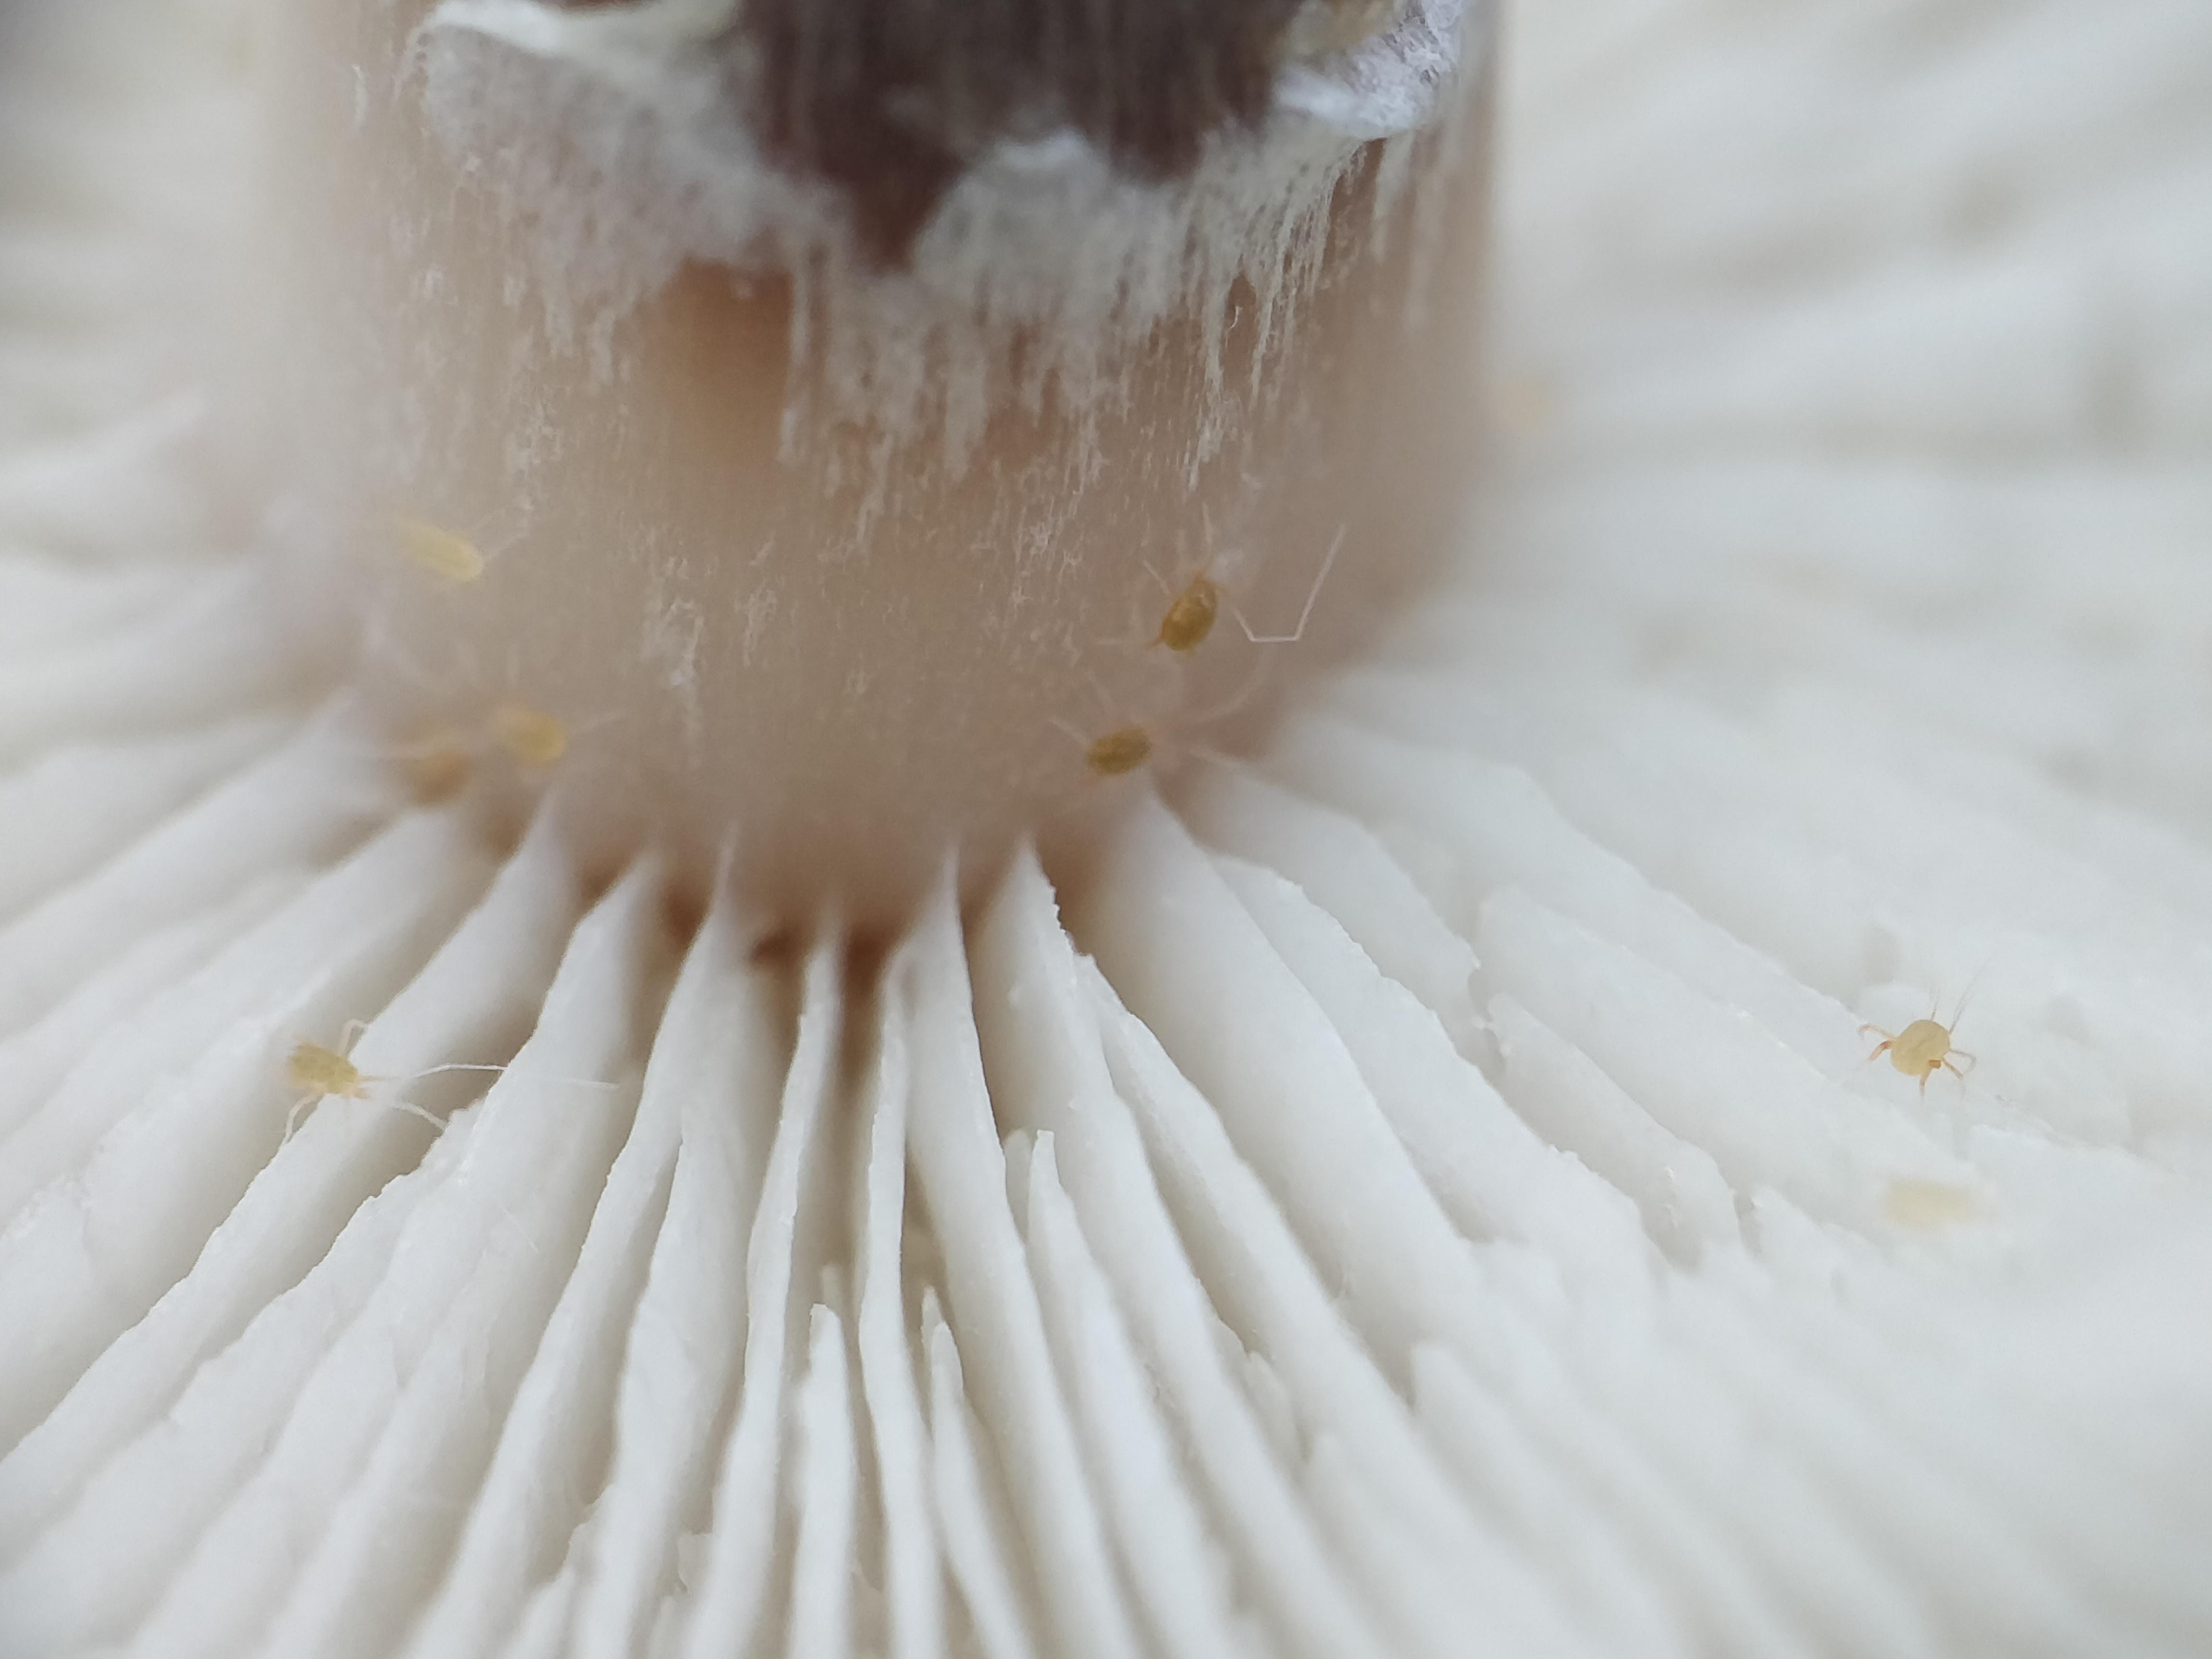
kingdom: Fungi
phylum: Basidiomycota
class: Agaricomycetes
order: Agaricales
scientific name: Agaricales
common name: champignonordenen
